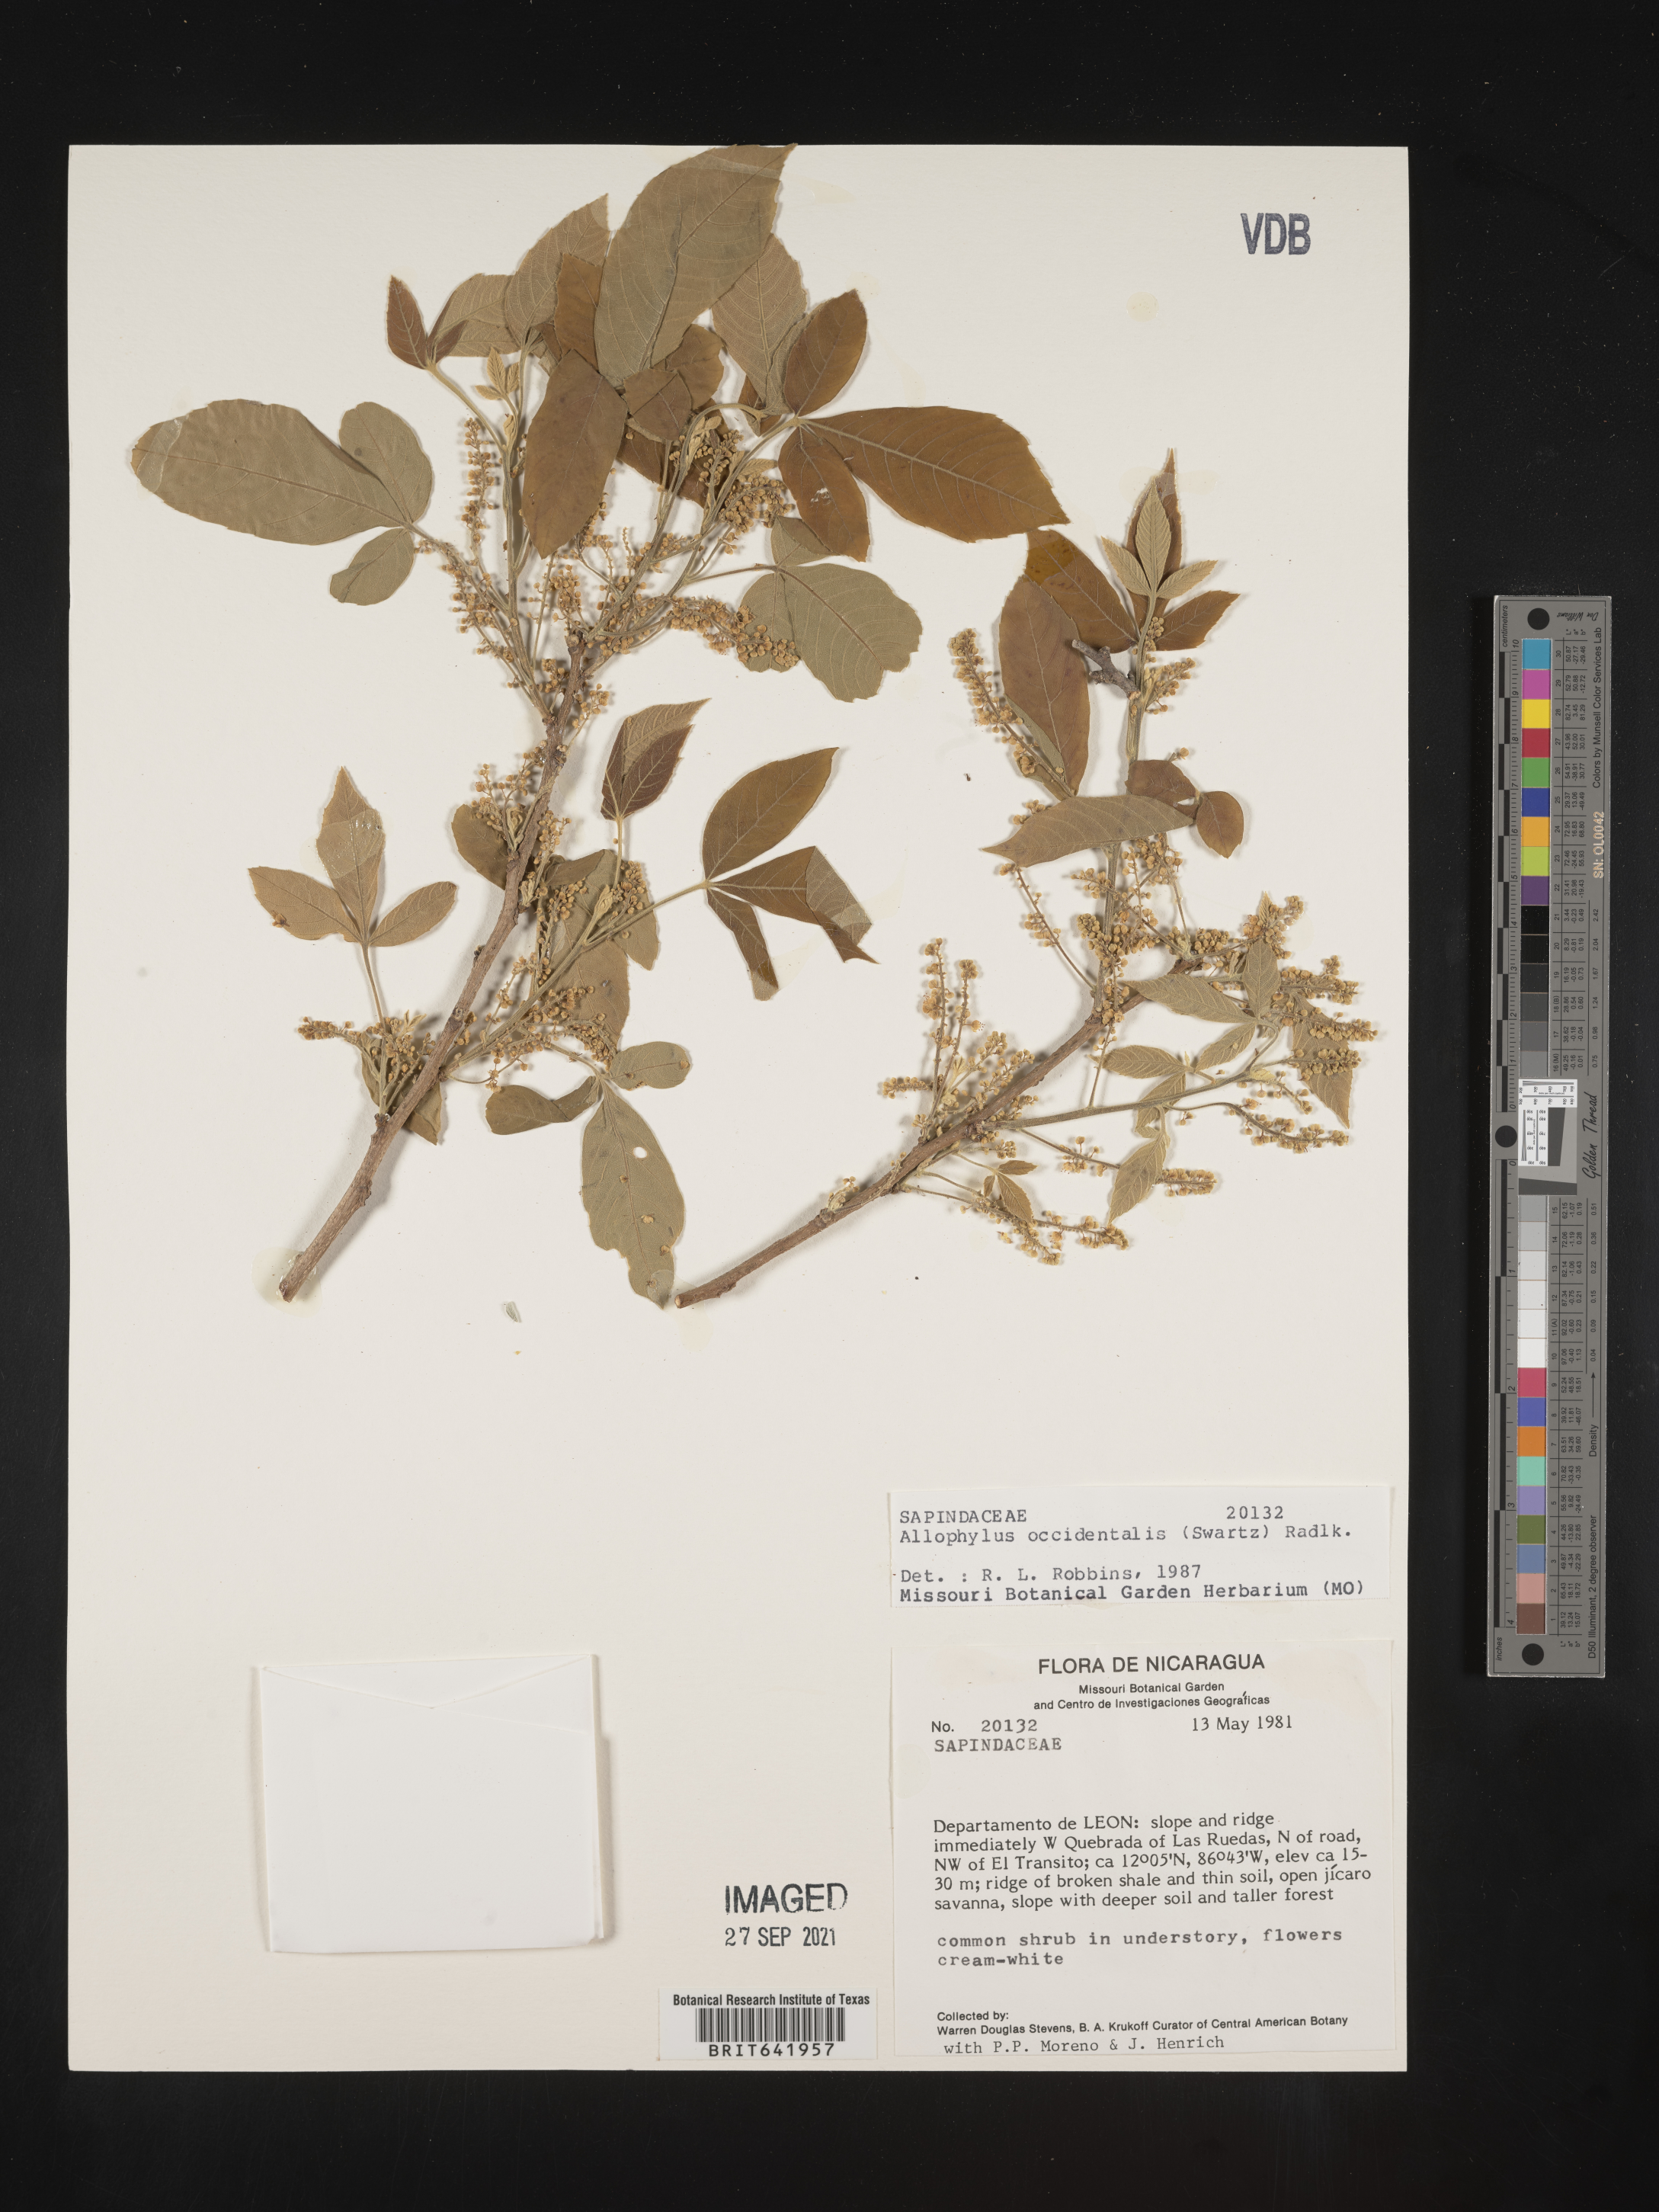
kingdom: Plantae
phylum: Tracheophyta
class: Magnoliopsida
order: Sapindales
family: Sapindaceae
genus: Allophylus
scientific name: Allophylus
